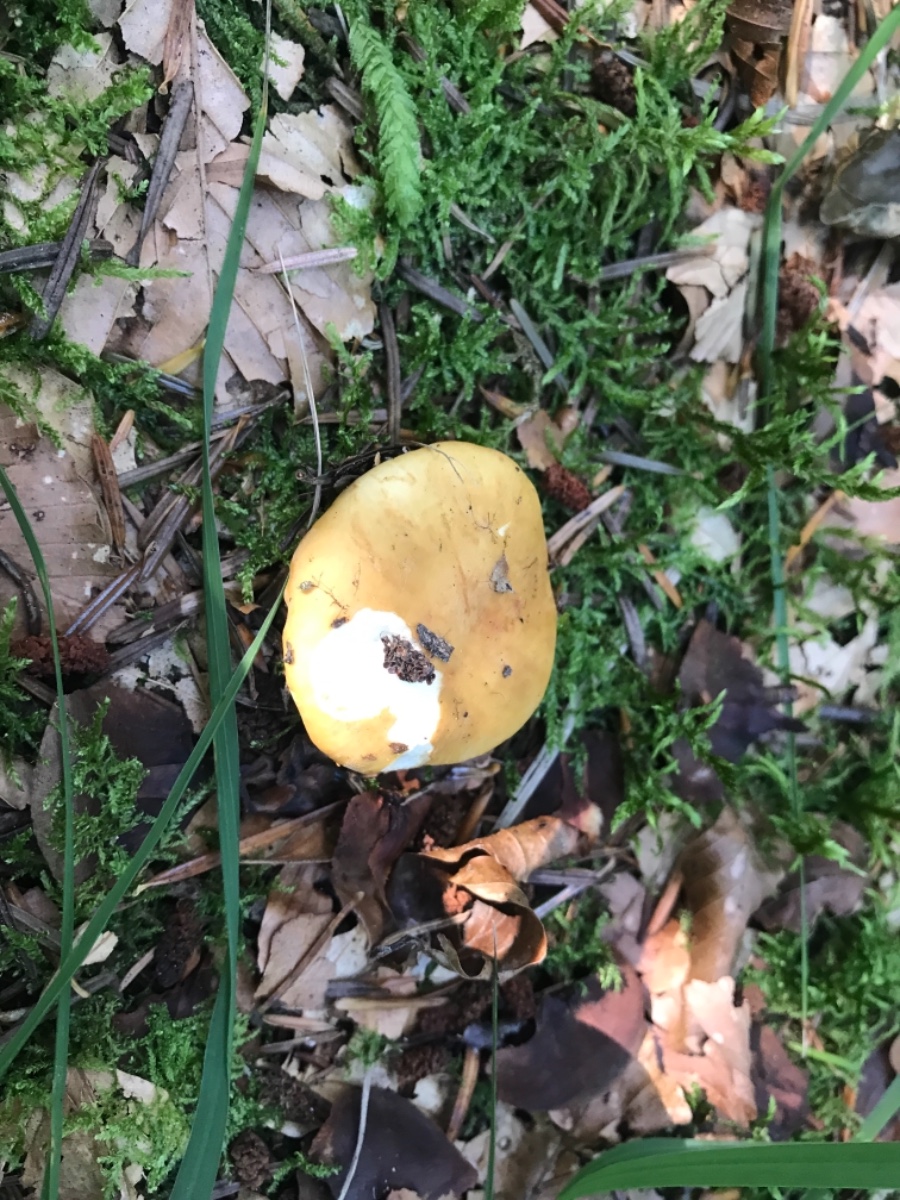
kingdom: Fungi
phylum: Basidiomycota
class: Agaricomycetes
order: Russulales
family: Russulaceae
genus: Russula
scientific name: Russula ochroleuca
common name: okkergul skørhat
